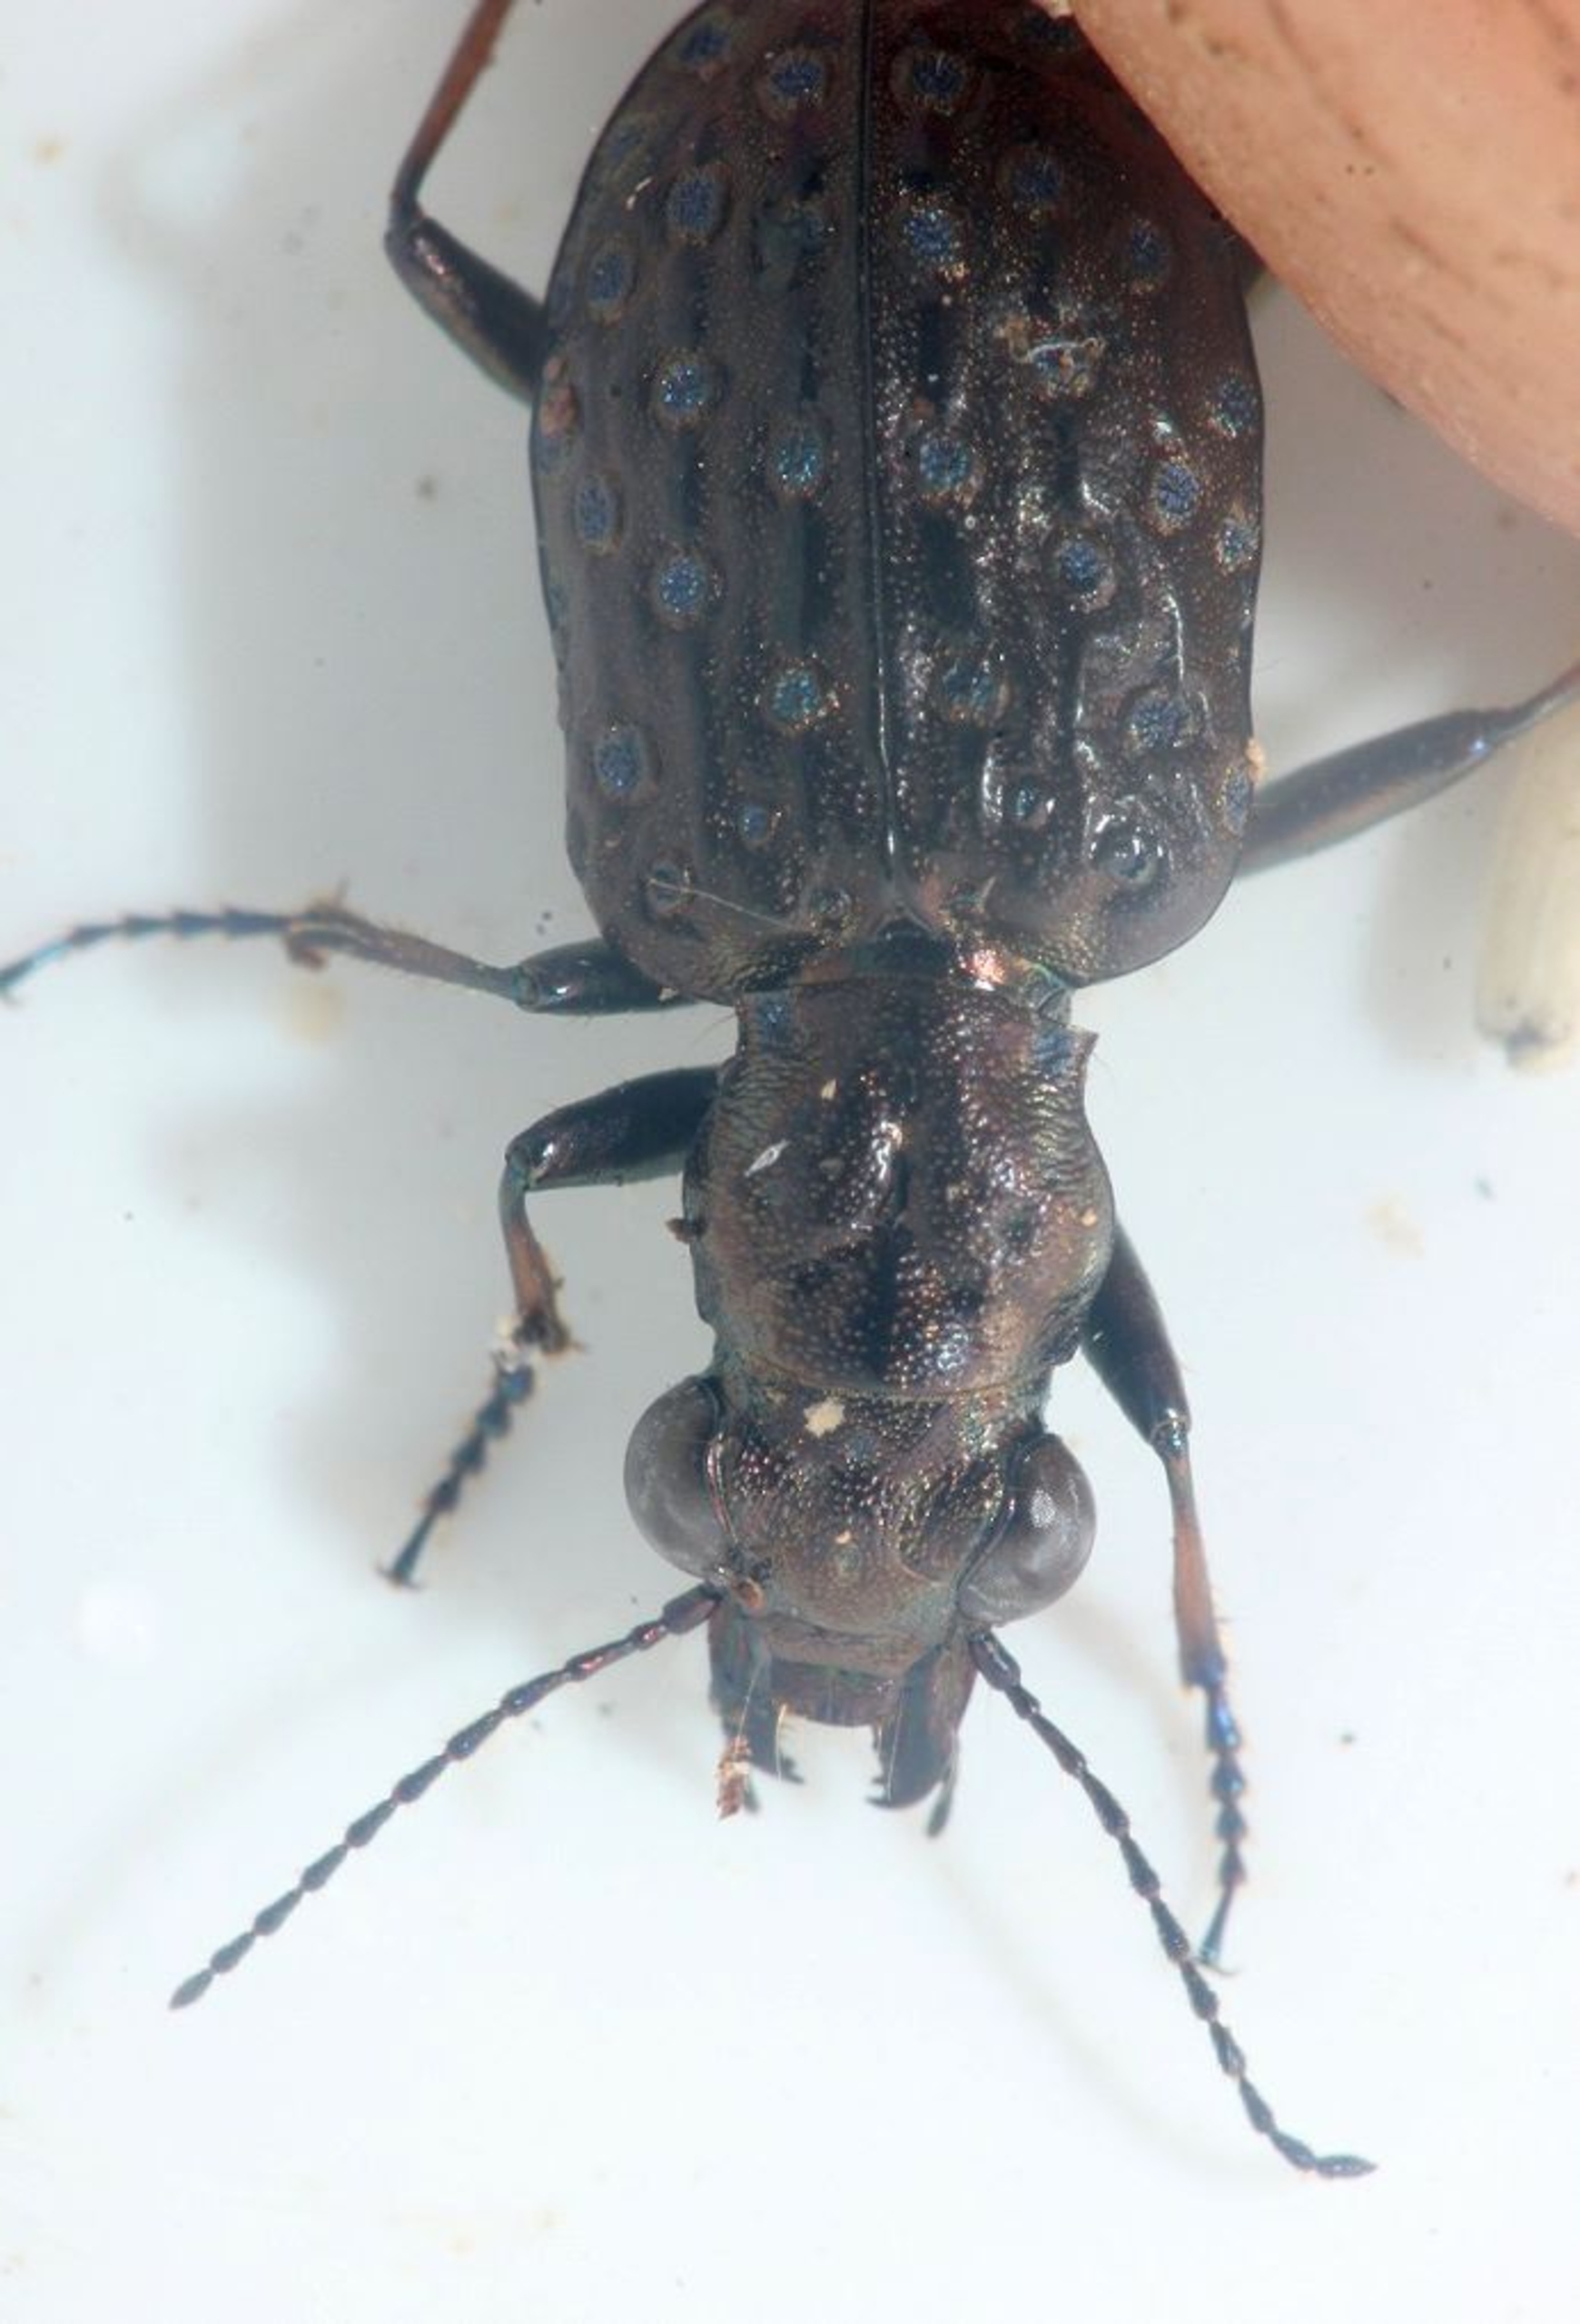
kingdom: Animalia
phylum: Arthropoda
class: Insecta
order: Coleoptera
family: Carabidae
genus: Elaphrus
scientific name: Elaphrus cupreus
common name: Kobberfarvet øjenløber
